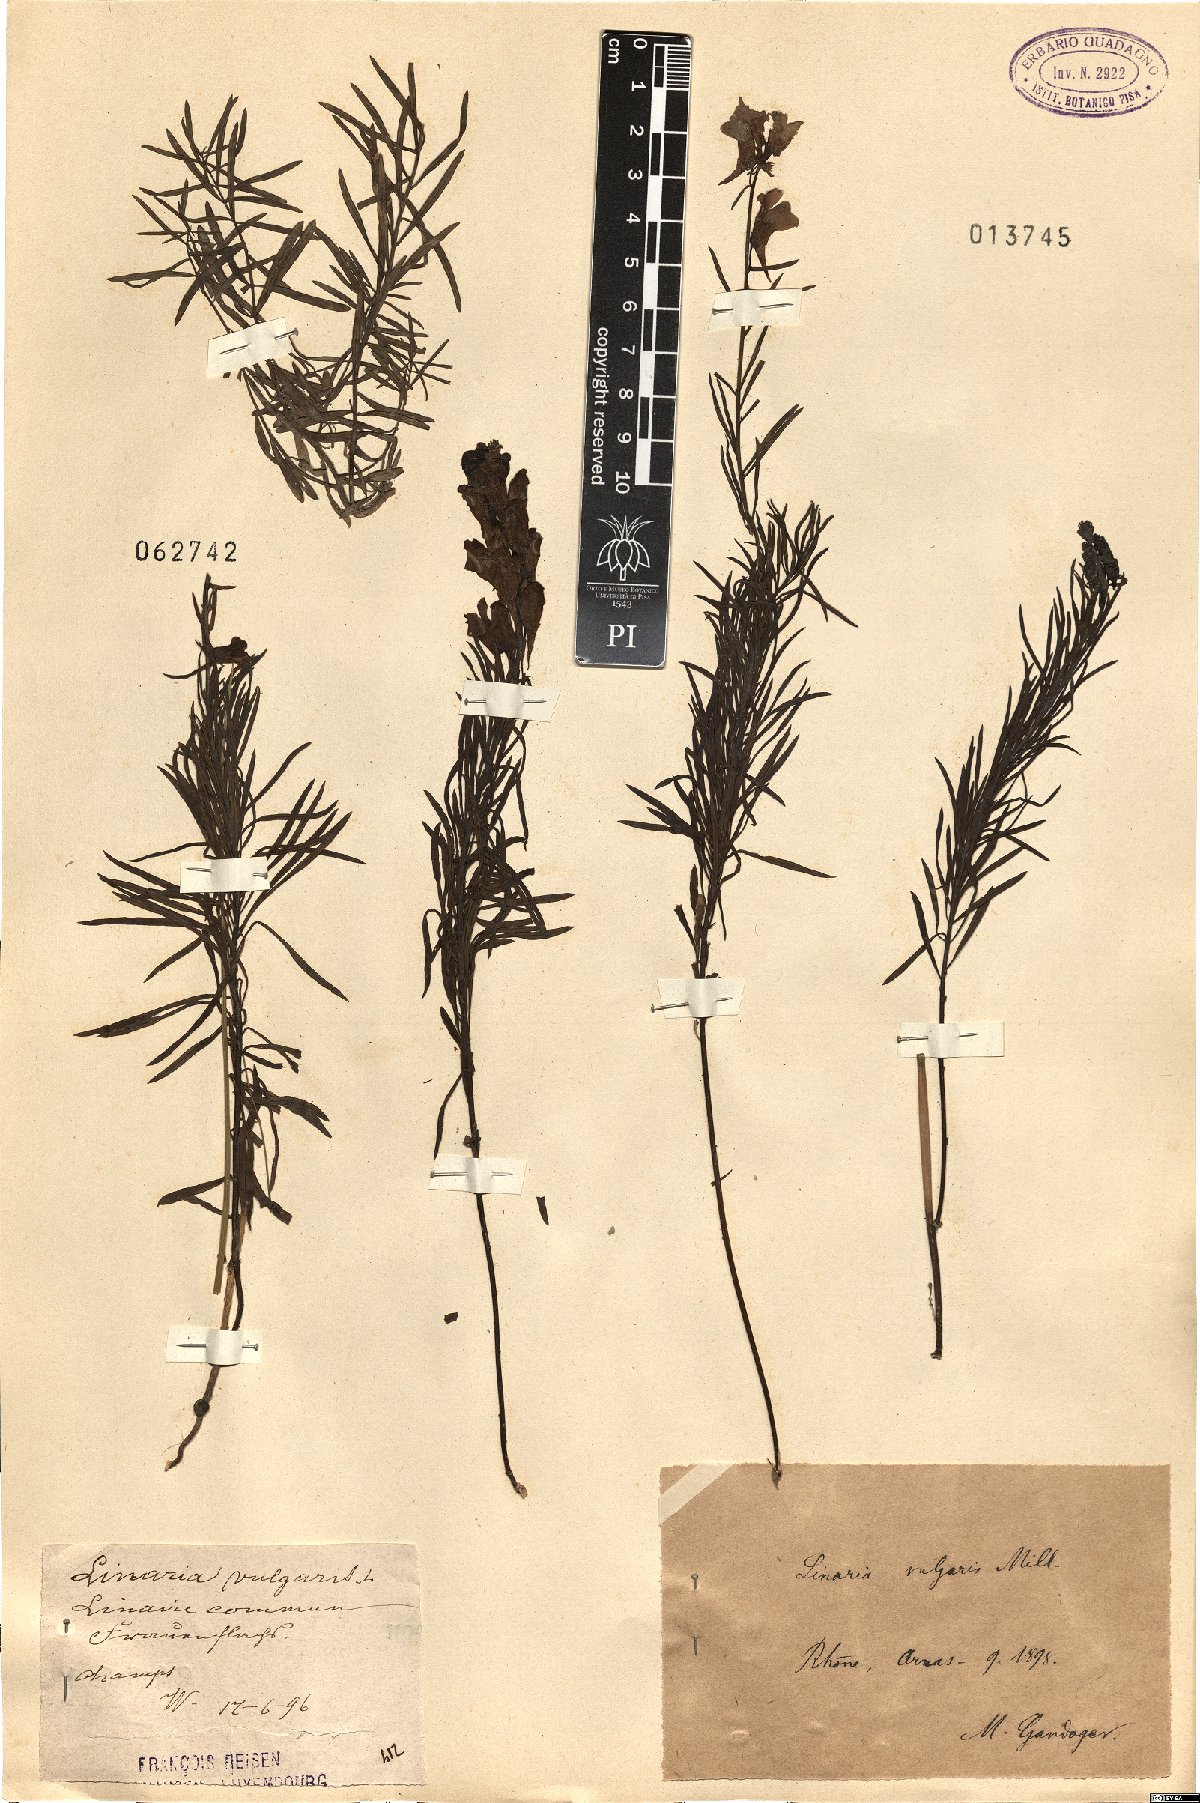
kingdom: Plantae
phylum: Tracheophyta
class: Magnoliopsida
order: Lamiales
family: Plantaginaceae
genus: Linaria
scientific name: Linaria vulgaris
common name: Butter and eggs
